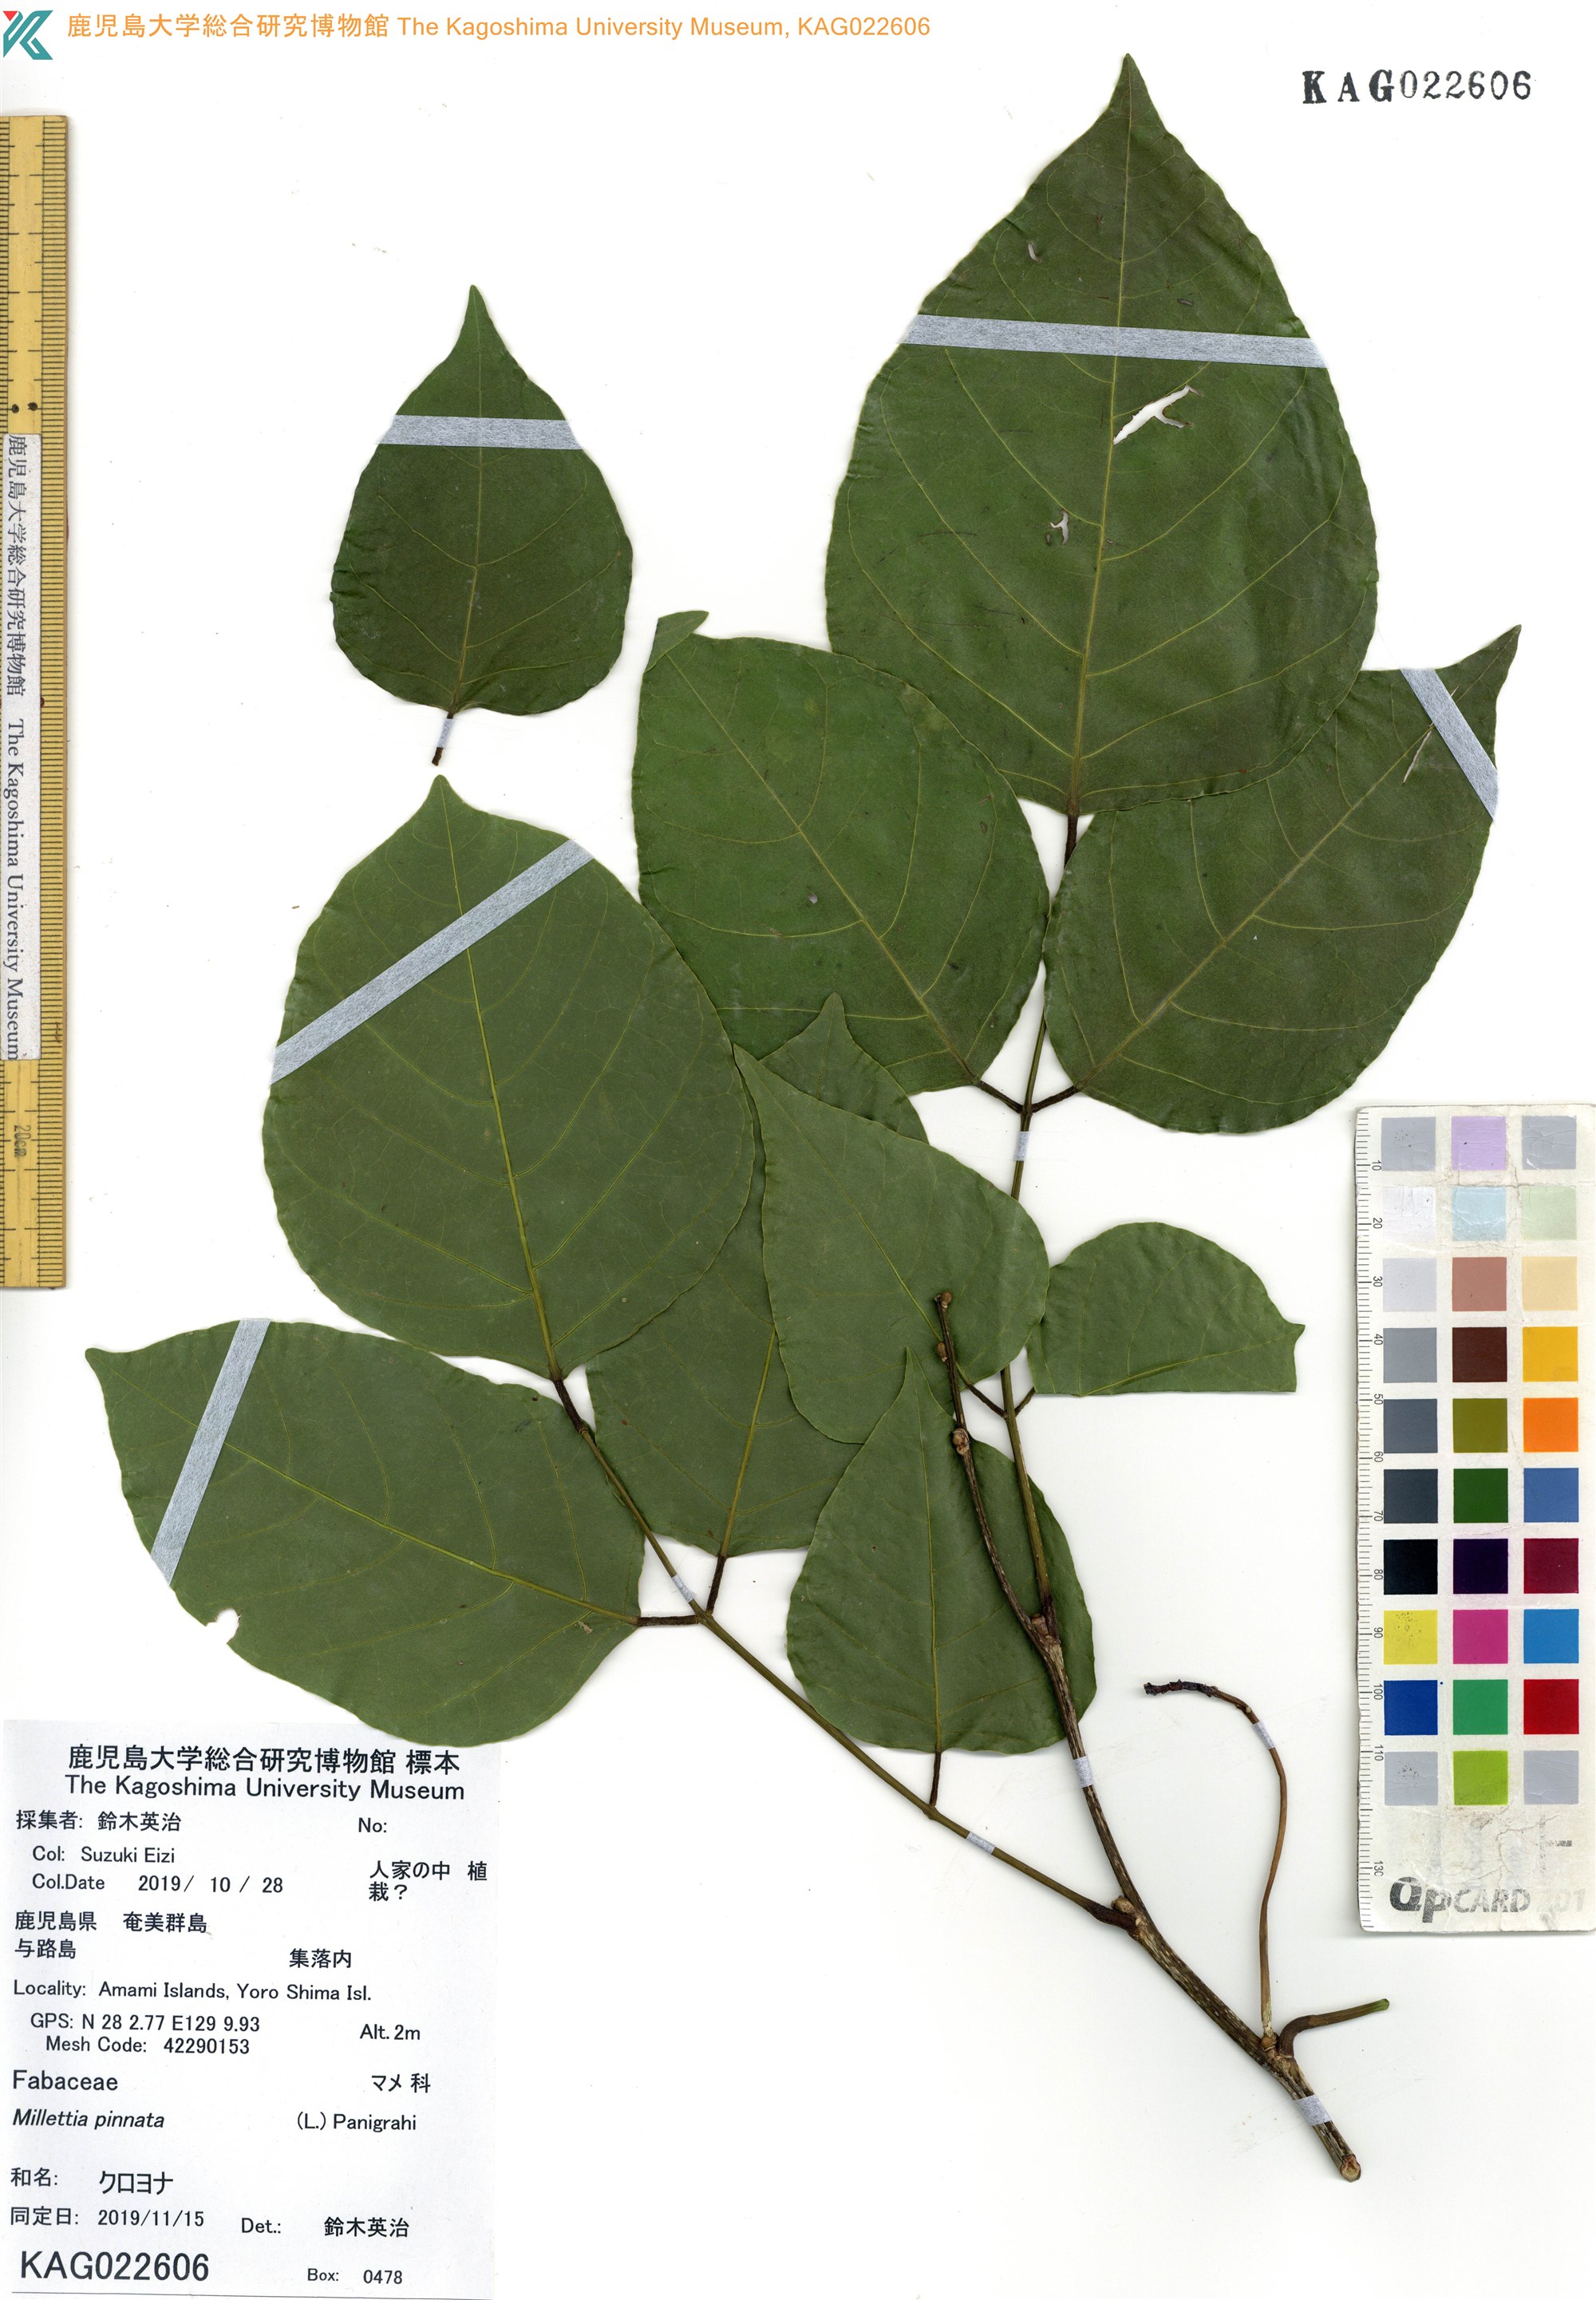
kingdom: Plantae
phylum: Tracheophyta
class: Magnoliopsida
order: Fabales
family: Fabaceae
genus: Pongamia
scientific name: Pongamia pinnata
